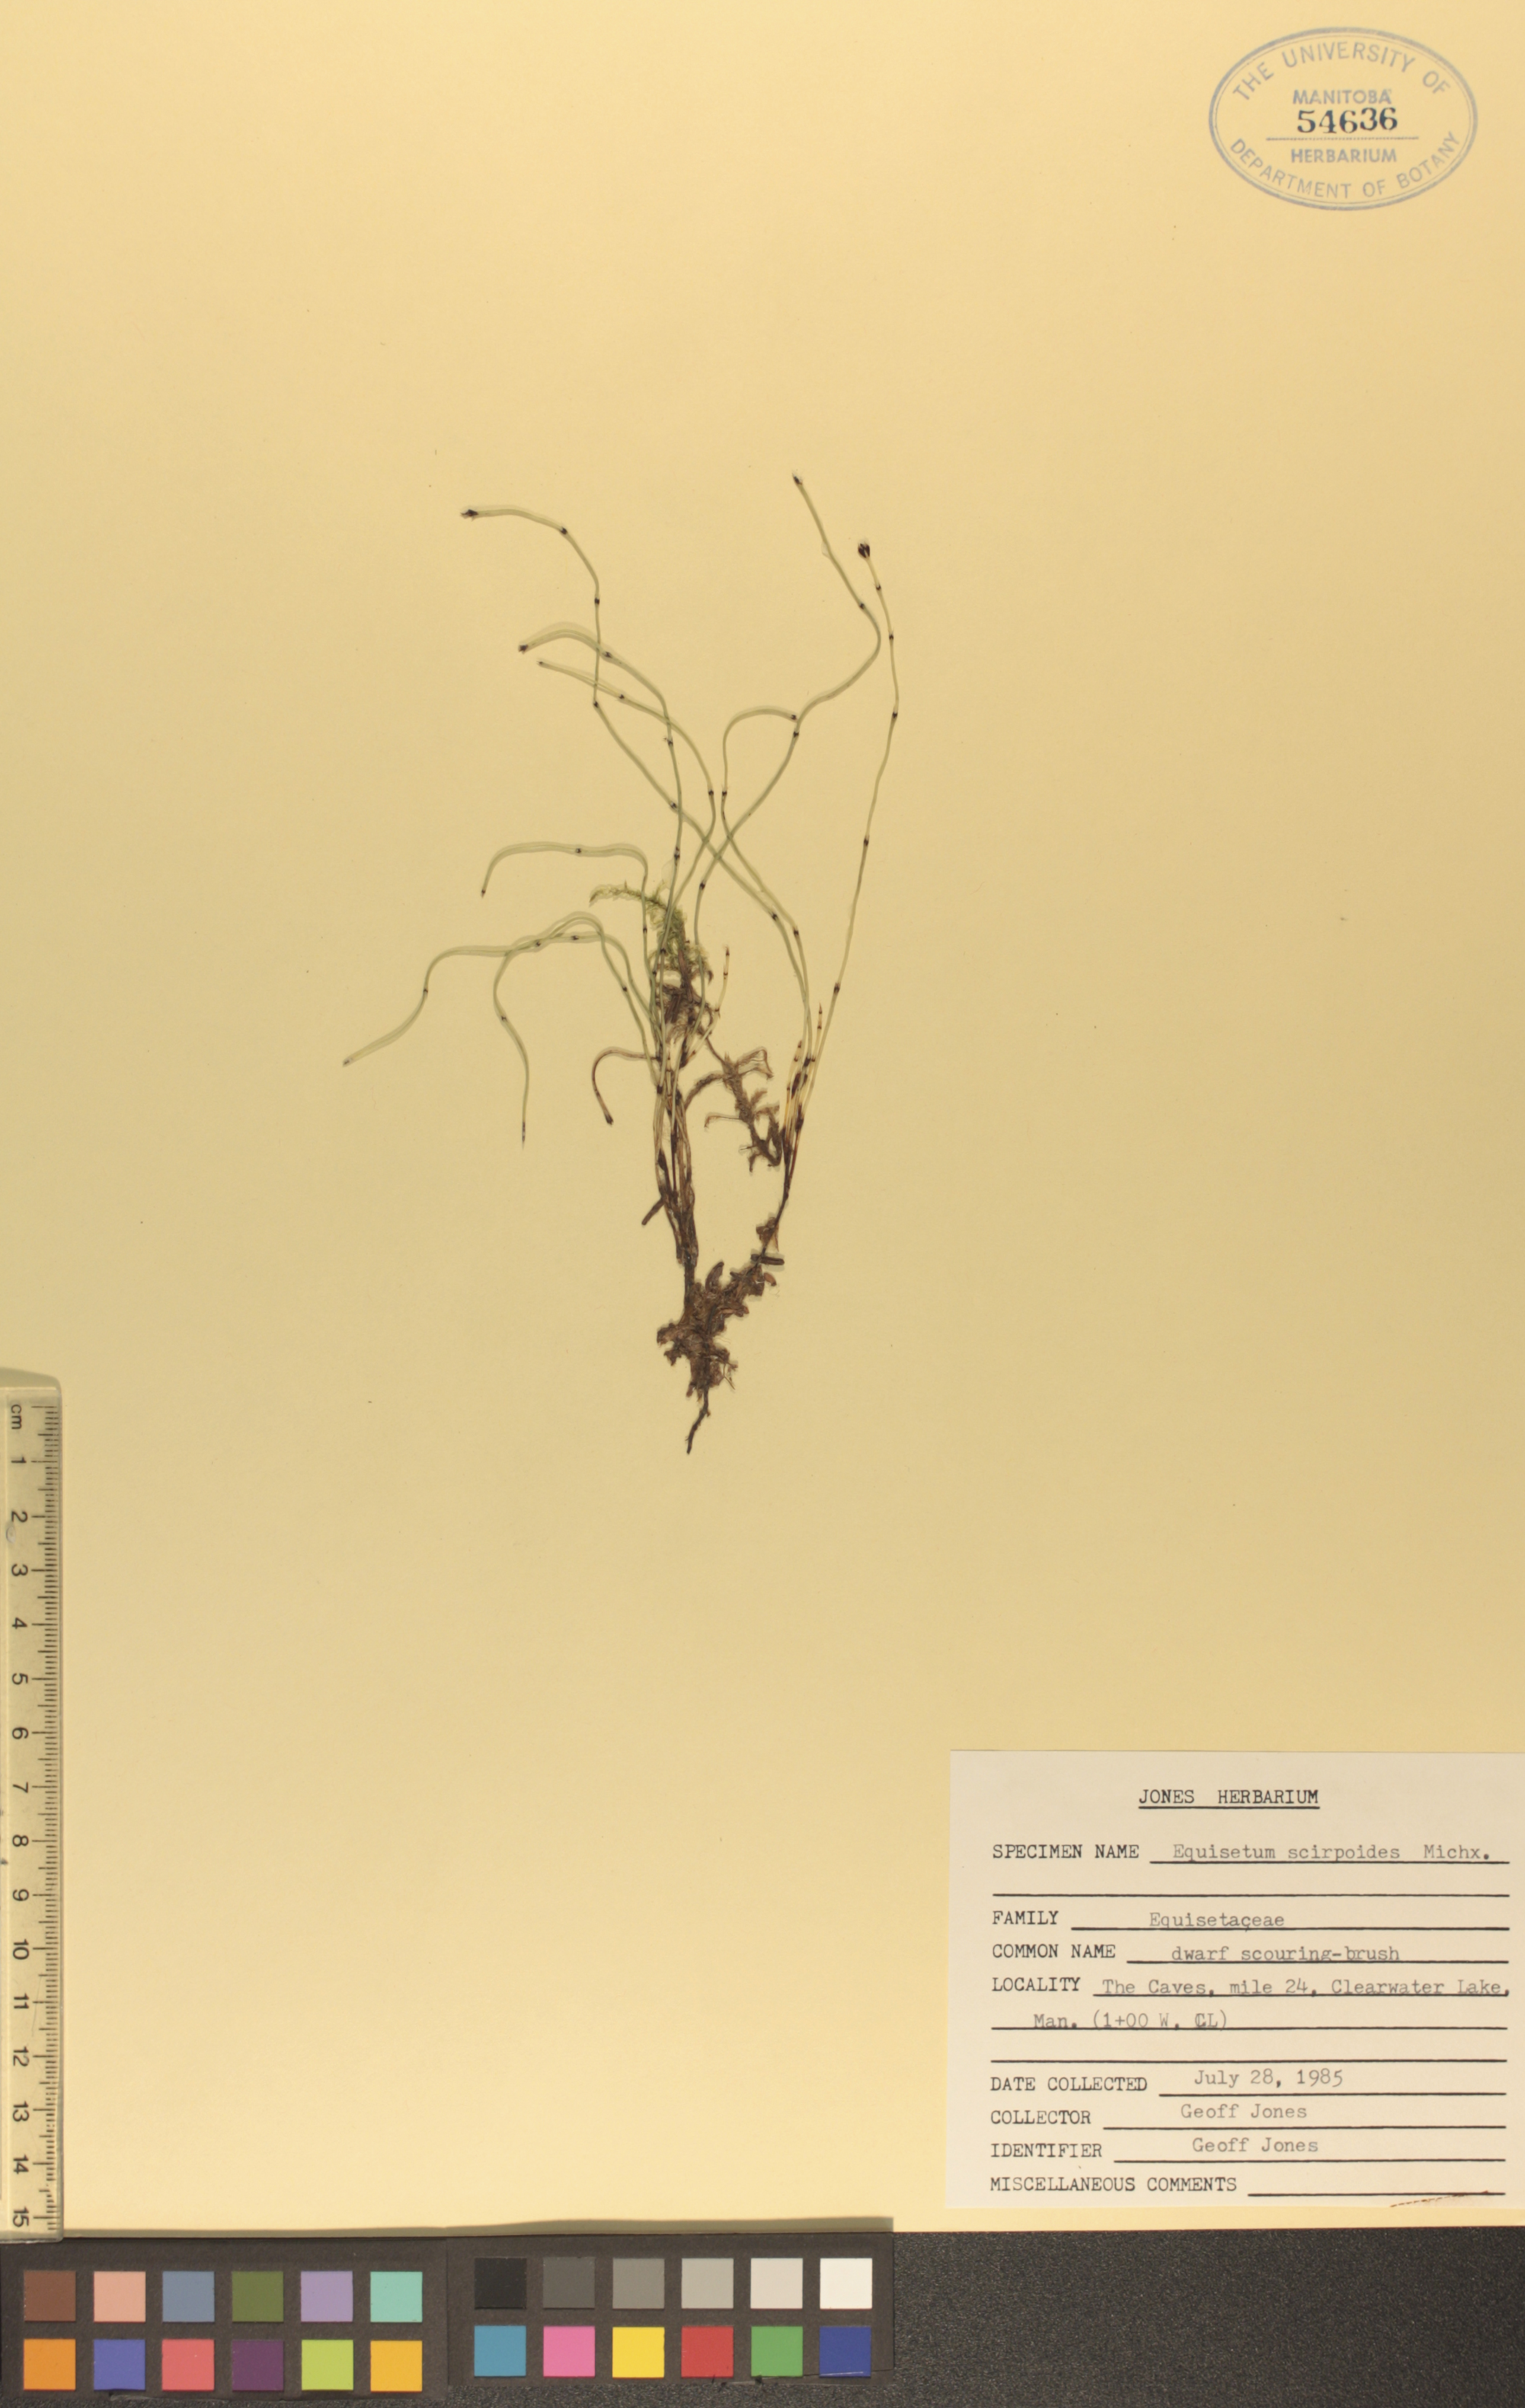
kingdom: Plantae
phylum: Tracheophyta
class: Polypodiopsida
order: Equisetales
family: Equisetaceae
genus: Equisetum
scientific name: Equisetum scirpoides
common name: Delicate horsetail
